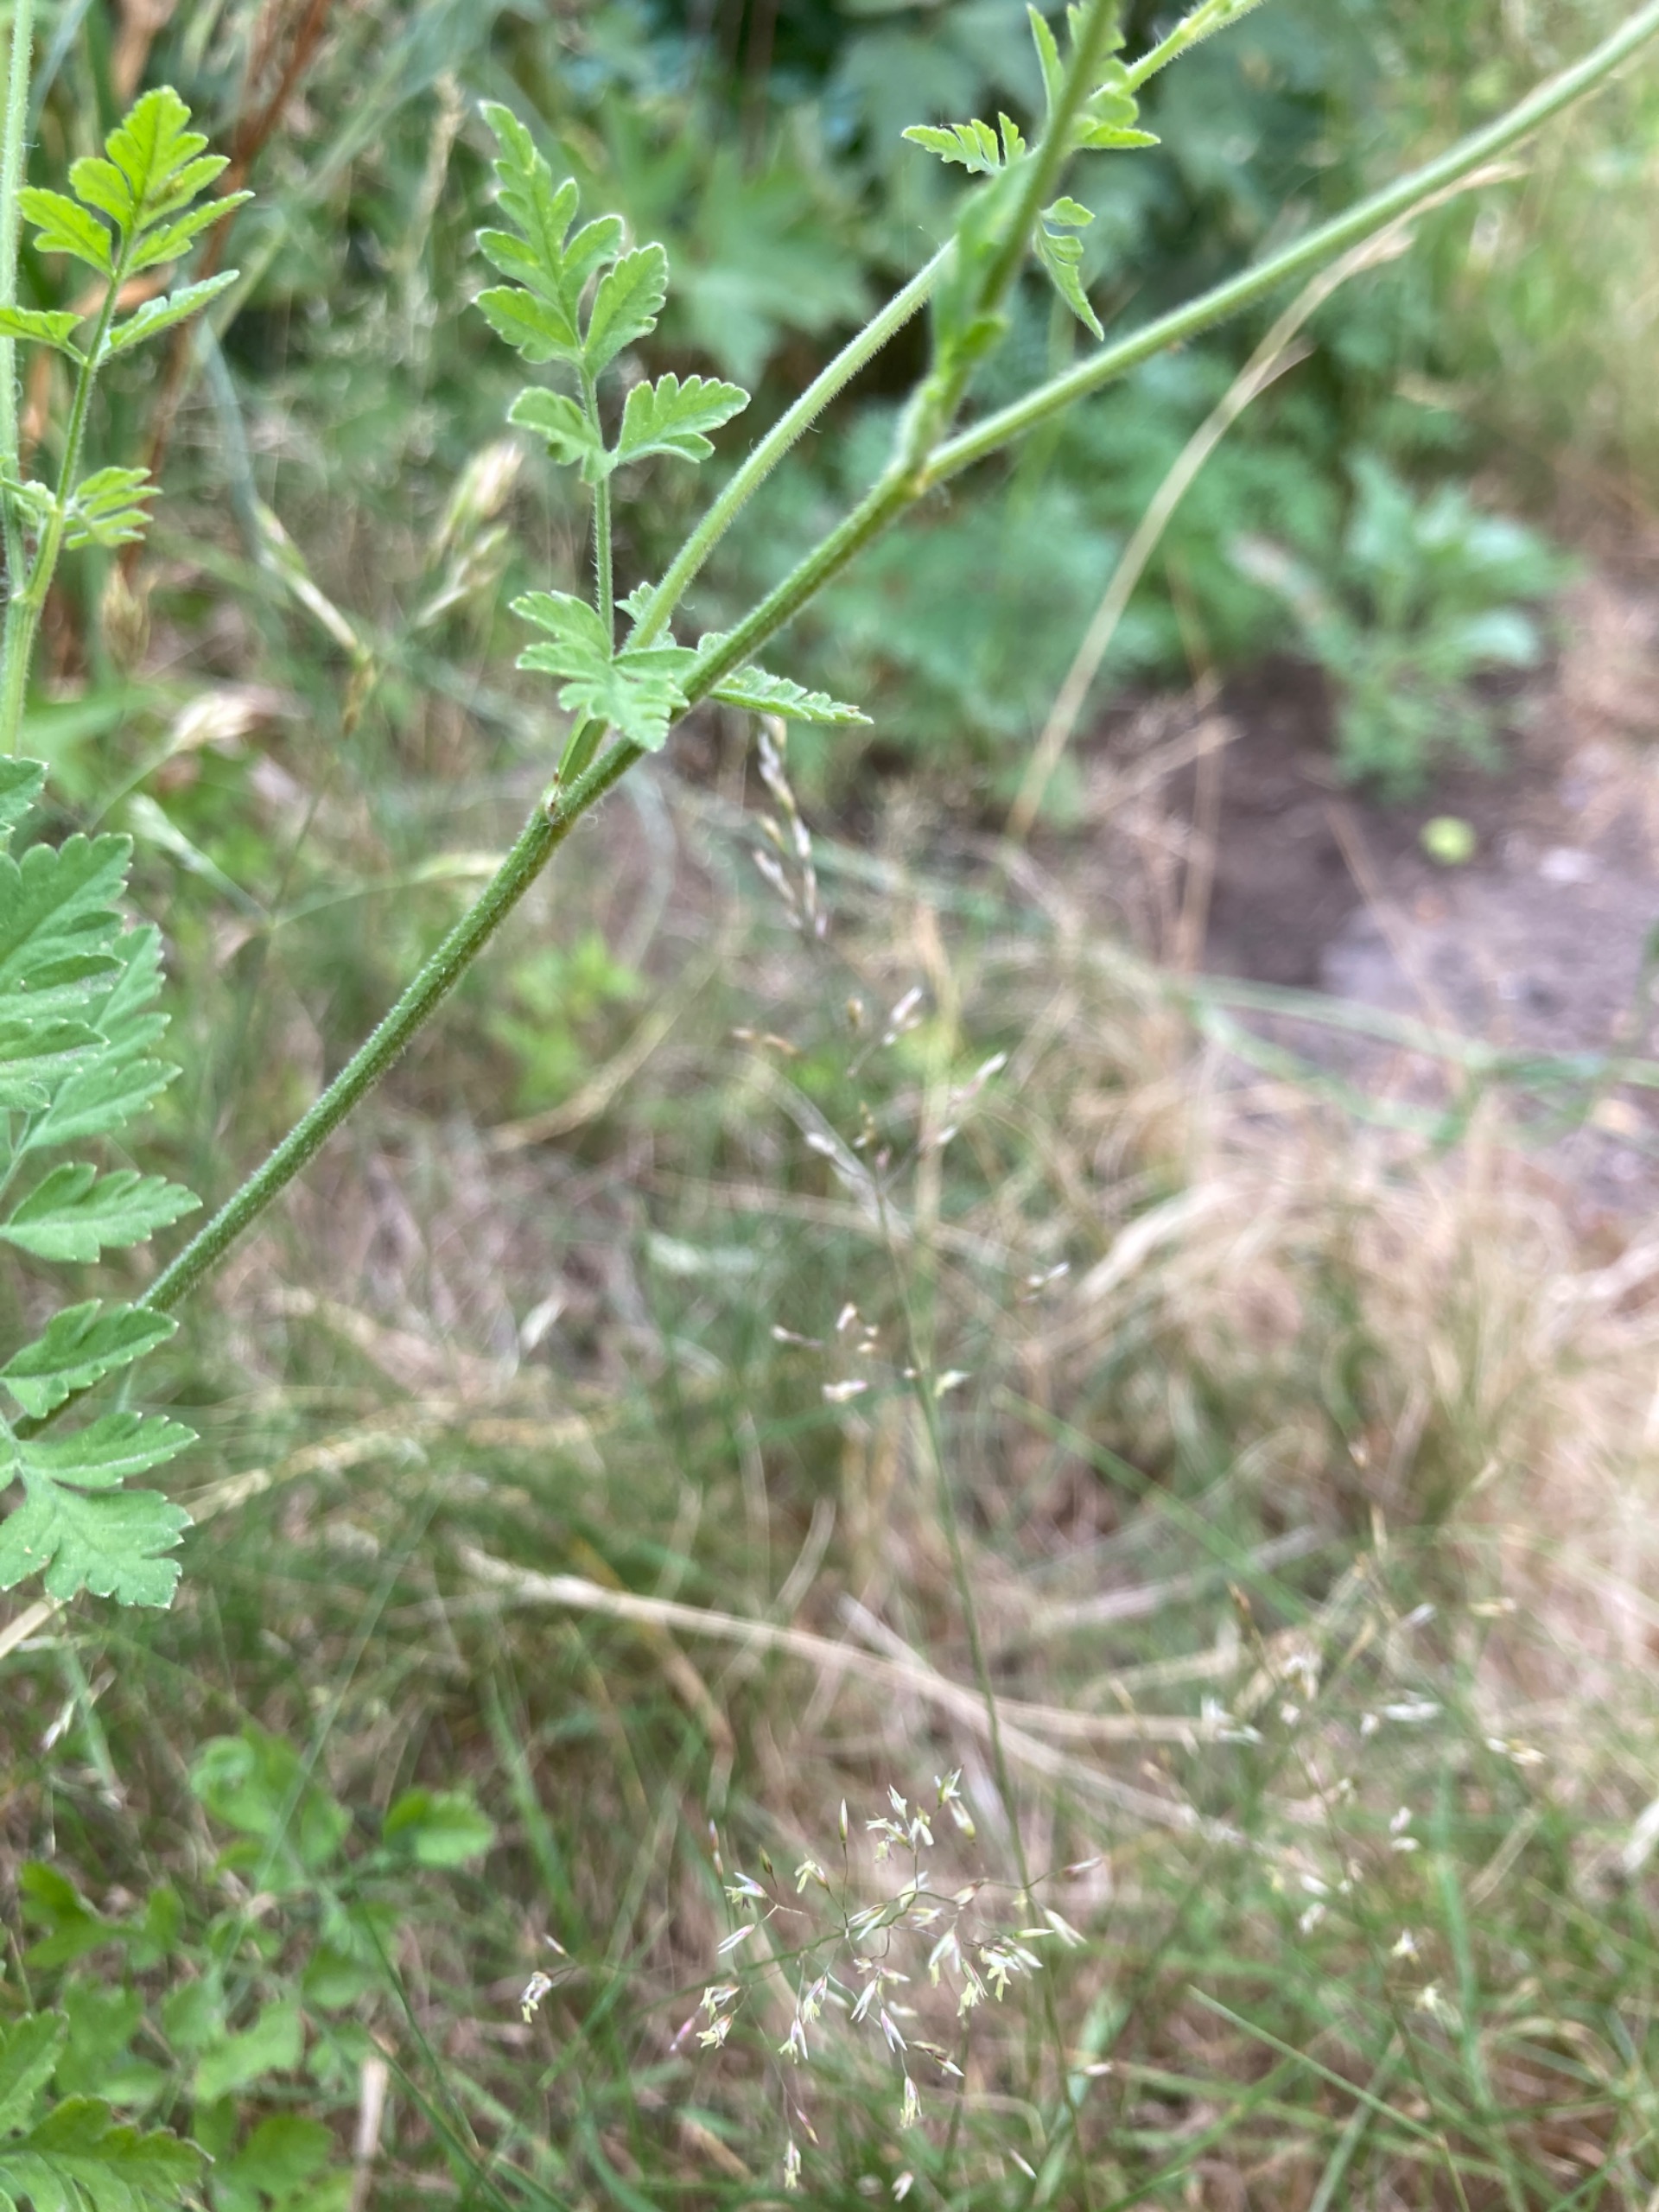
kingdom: Plantae
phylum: Tracheophyta
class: Magnoliopsida
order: Apiales
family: Apiaceae
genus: Chaerophyllum
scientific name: Chaerophyllum temulum
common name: Almindelig hulsvøb
